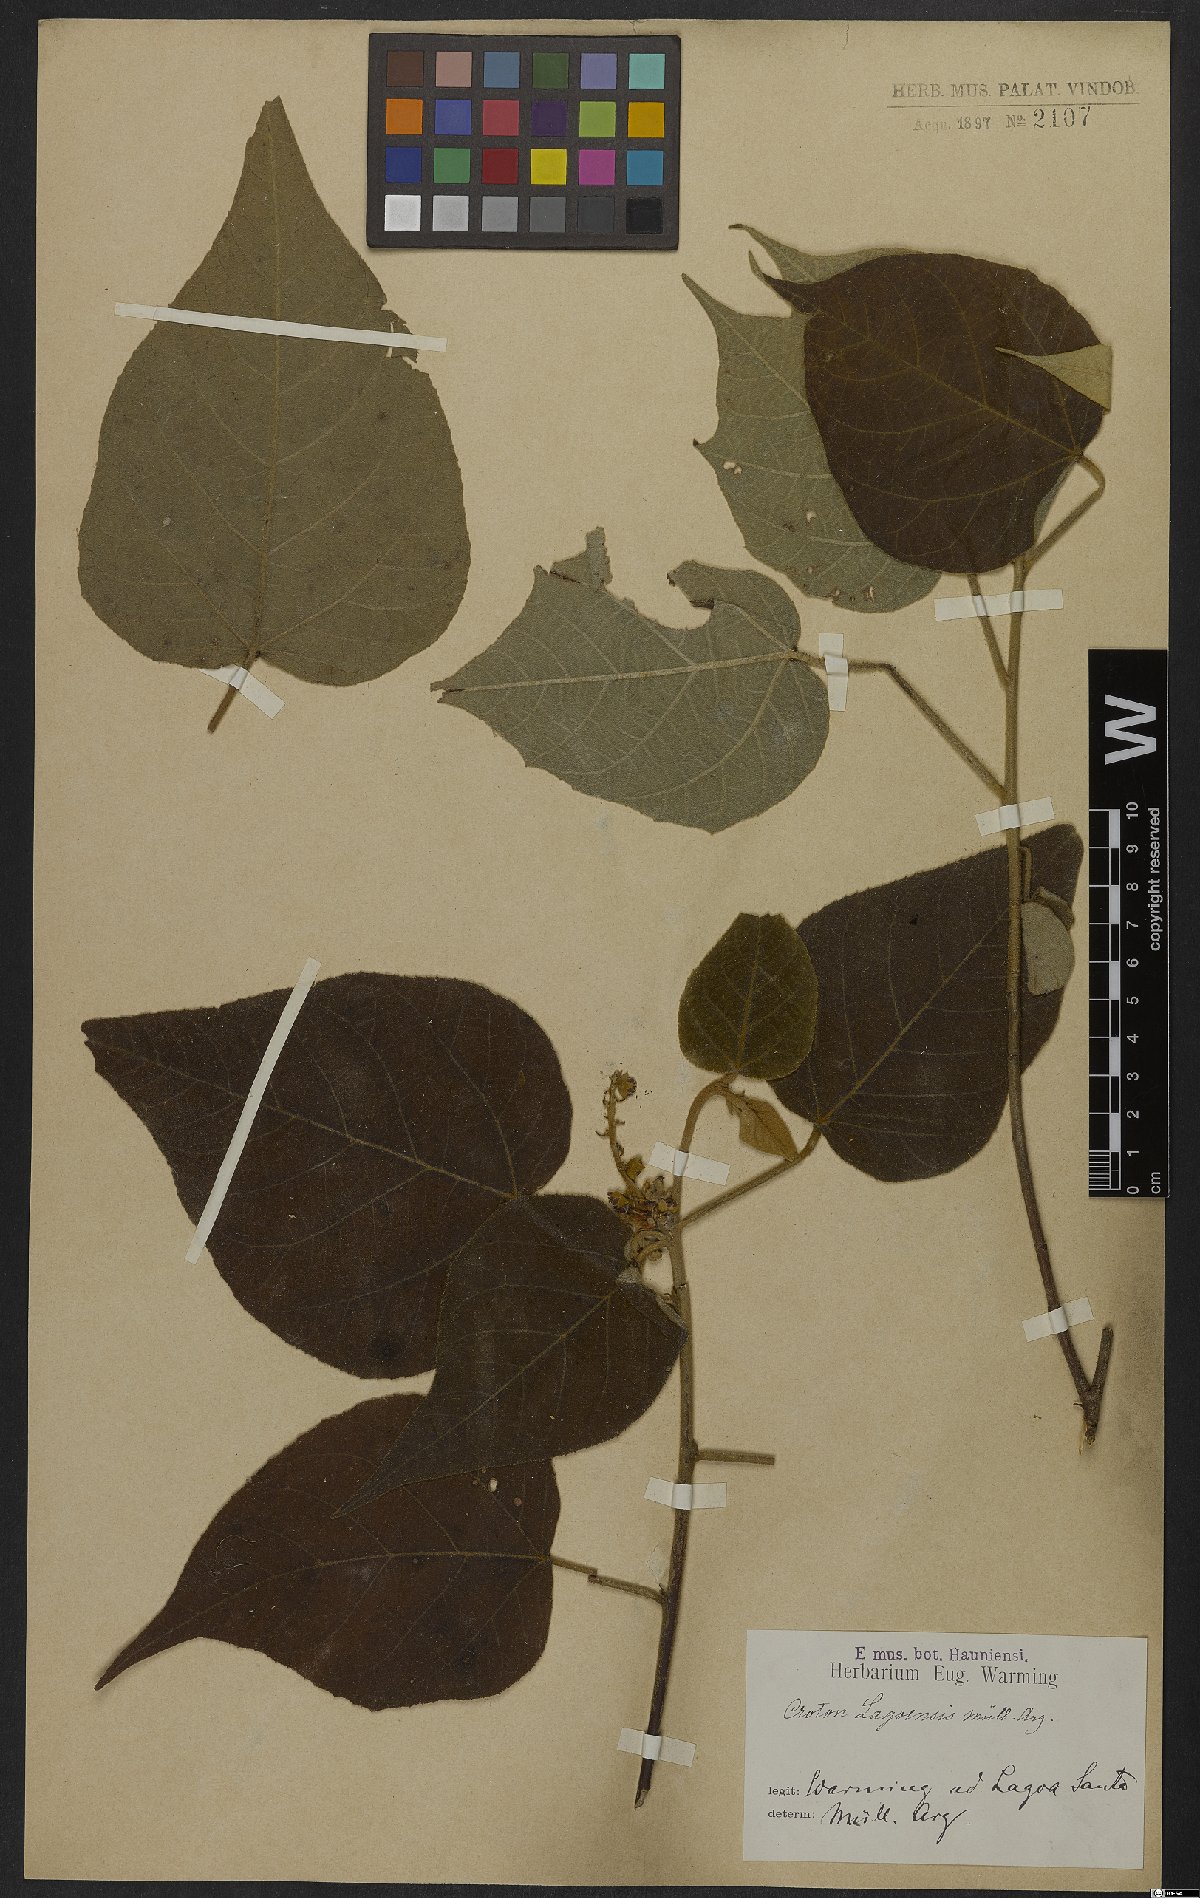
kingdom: Plantae
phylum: Tracheophyta
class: Magnoliopsida
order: Malpighiales
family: Euphorbiaceae
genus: Croton
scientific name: Croton lagoensis
